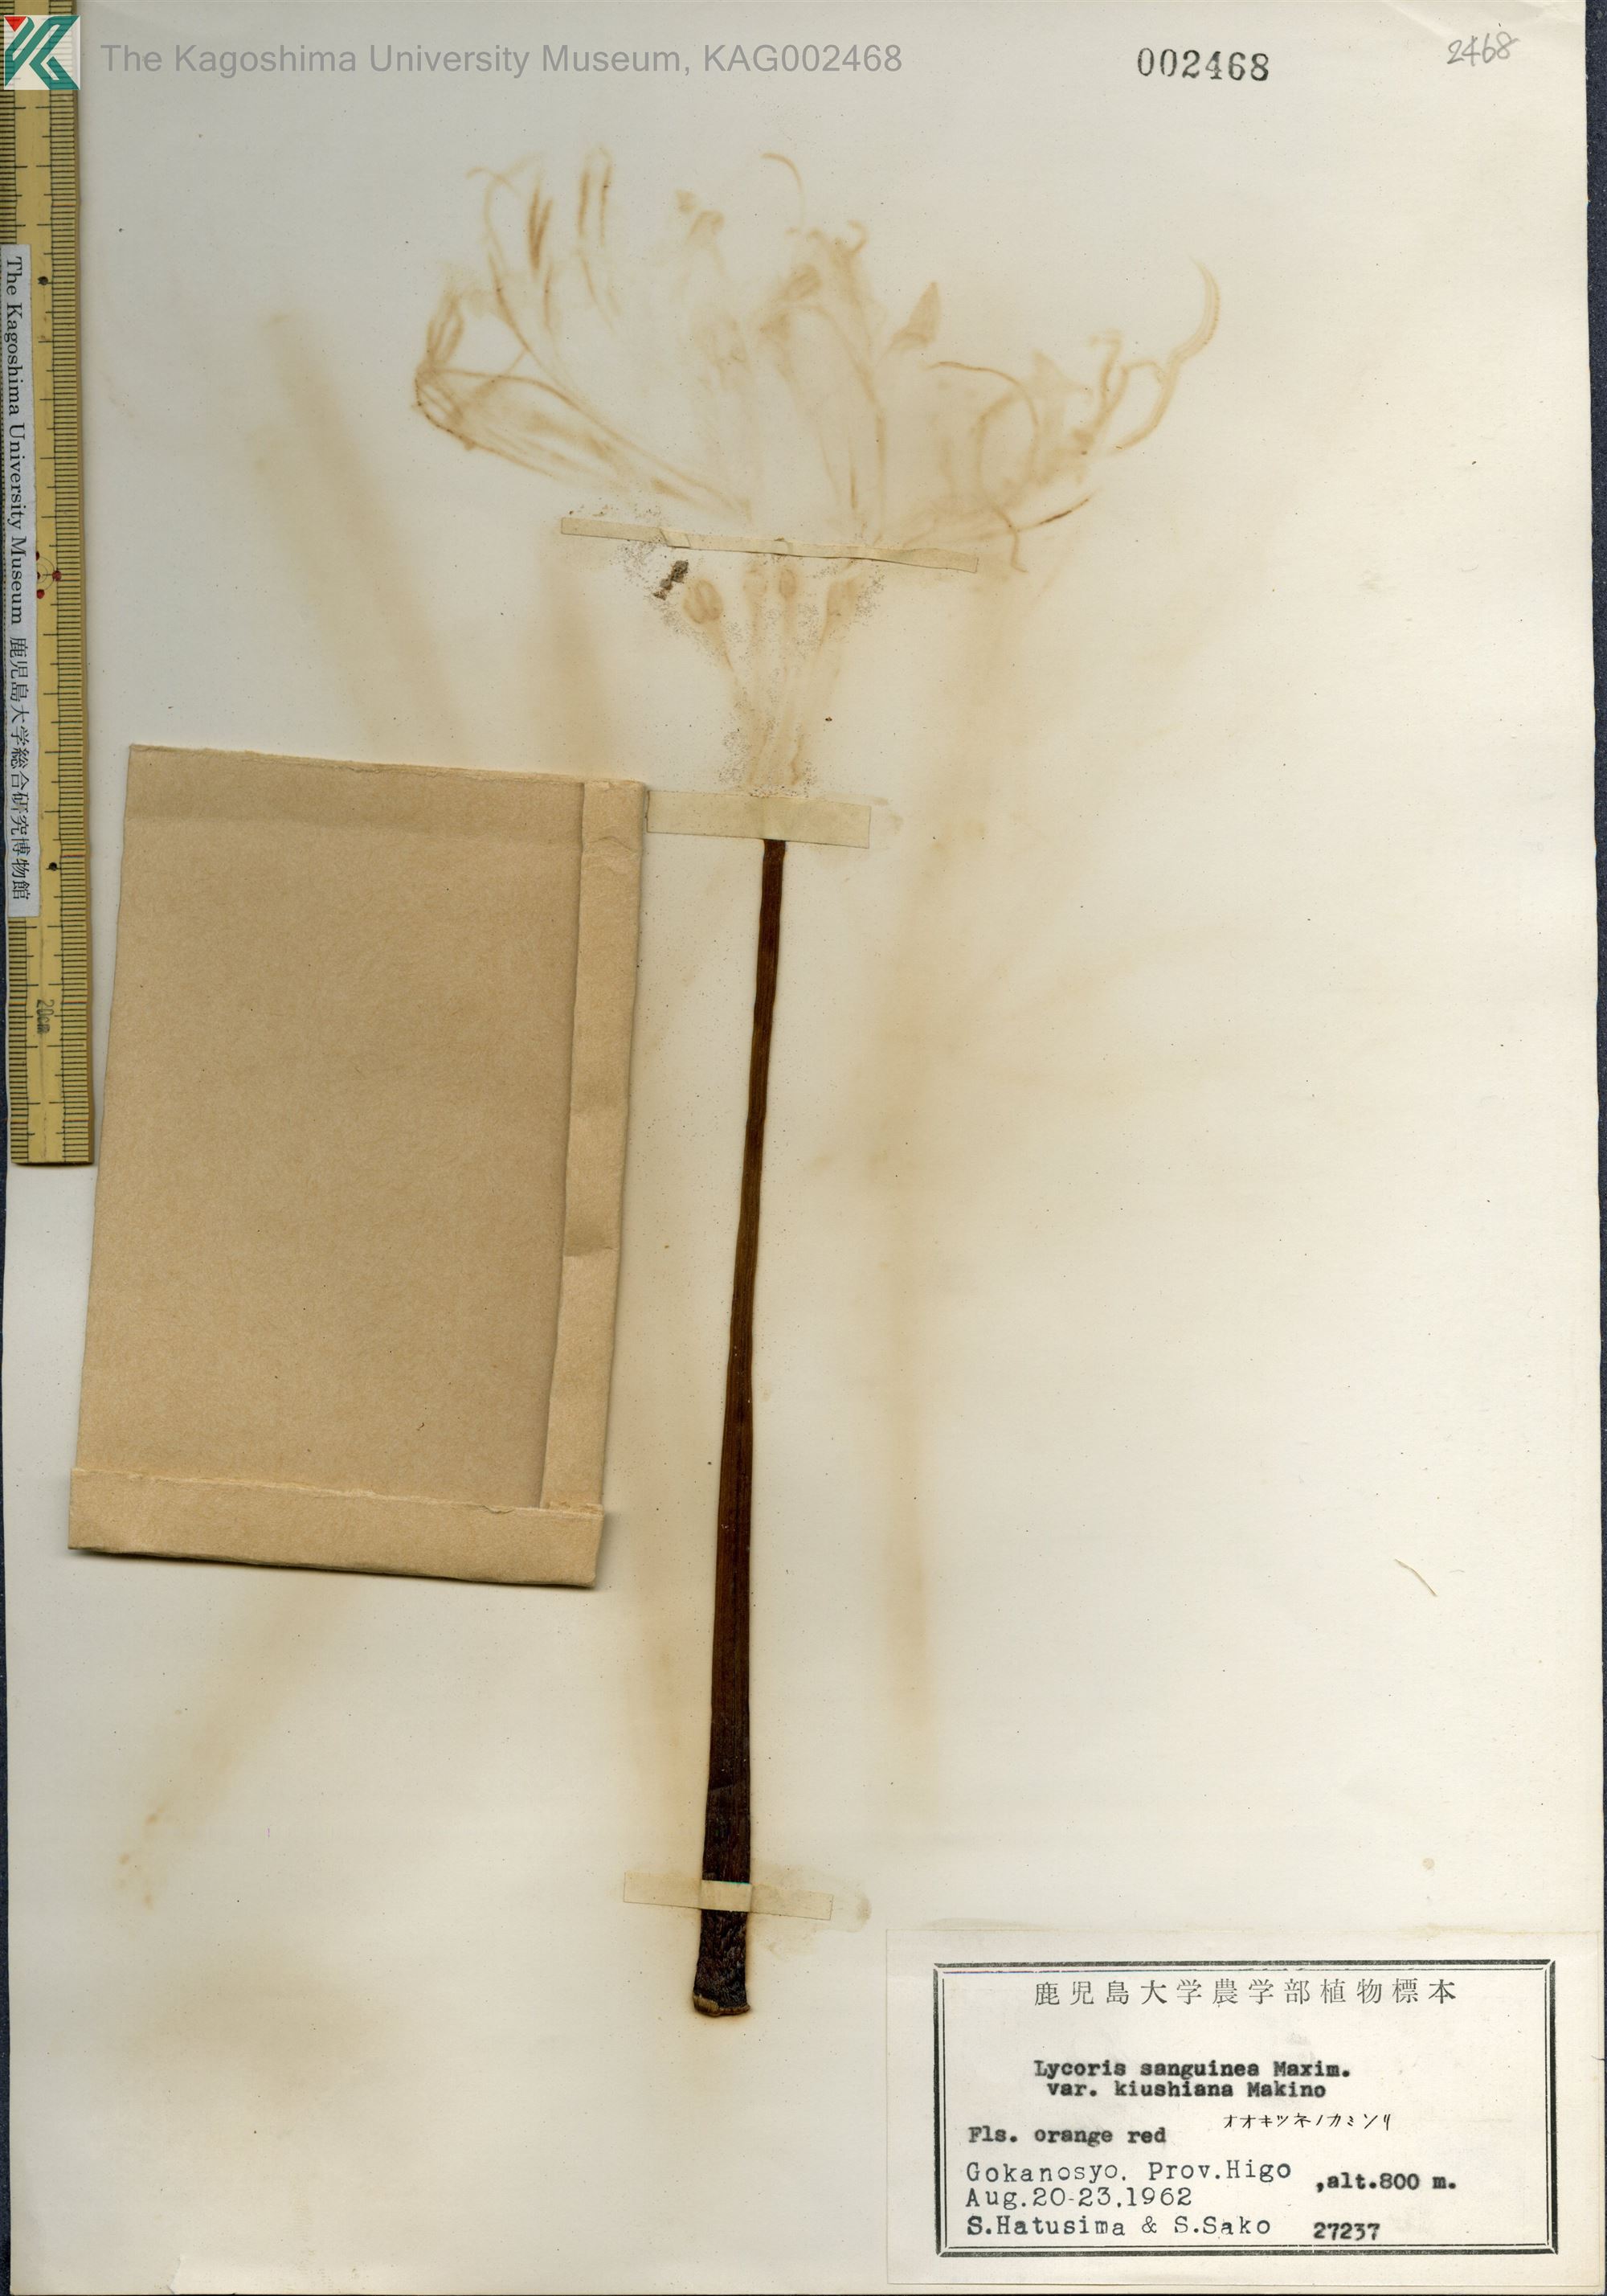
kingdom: Plantae
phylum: Tracheophyta
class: Liliopsida
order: Asparagales
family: Amaryllidaceae
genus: Lycoris
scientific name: Lycoris sanguinea
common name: Spider-lily
